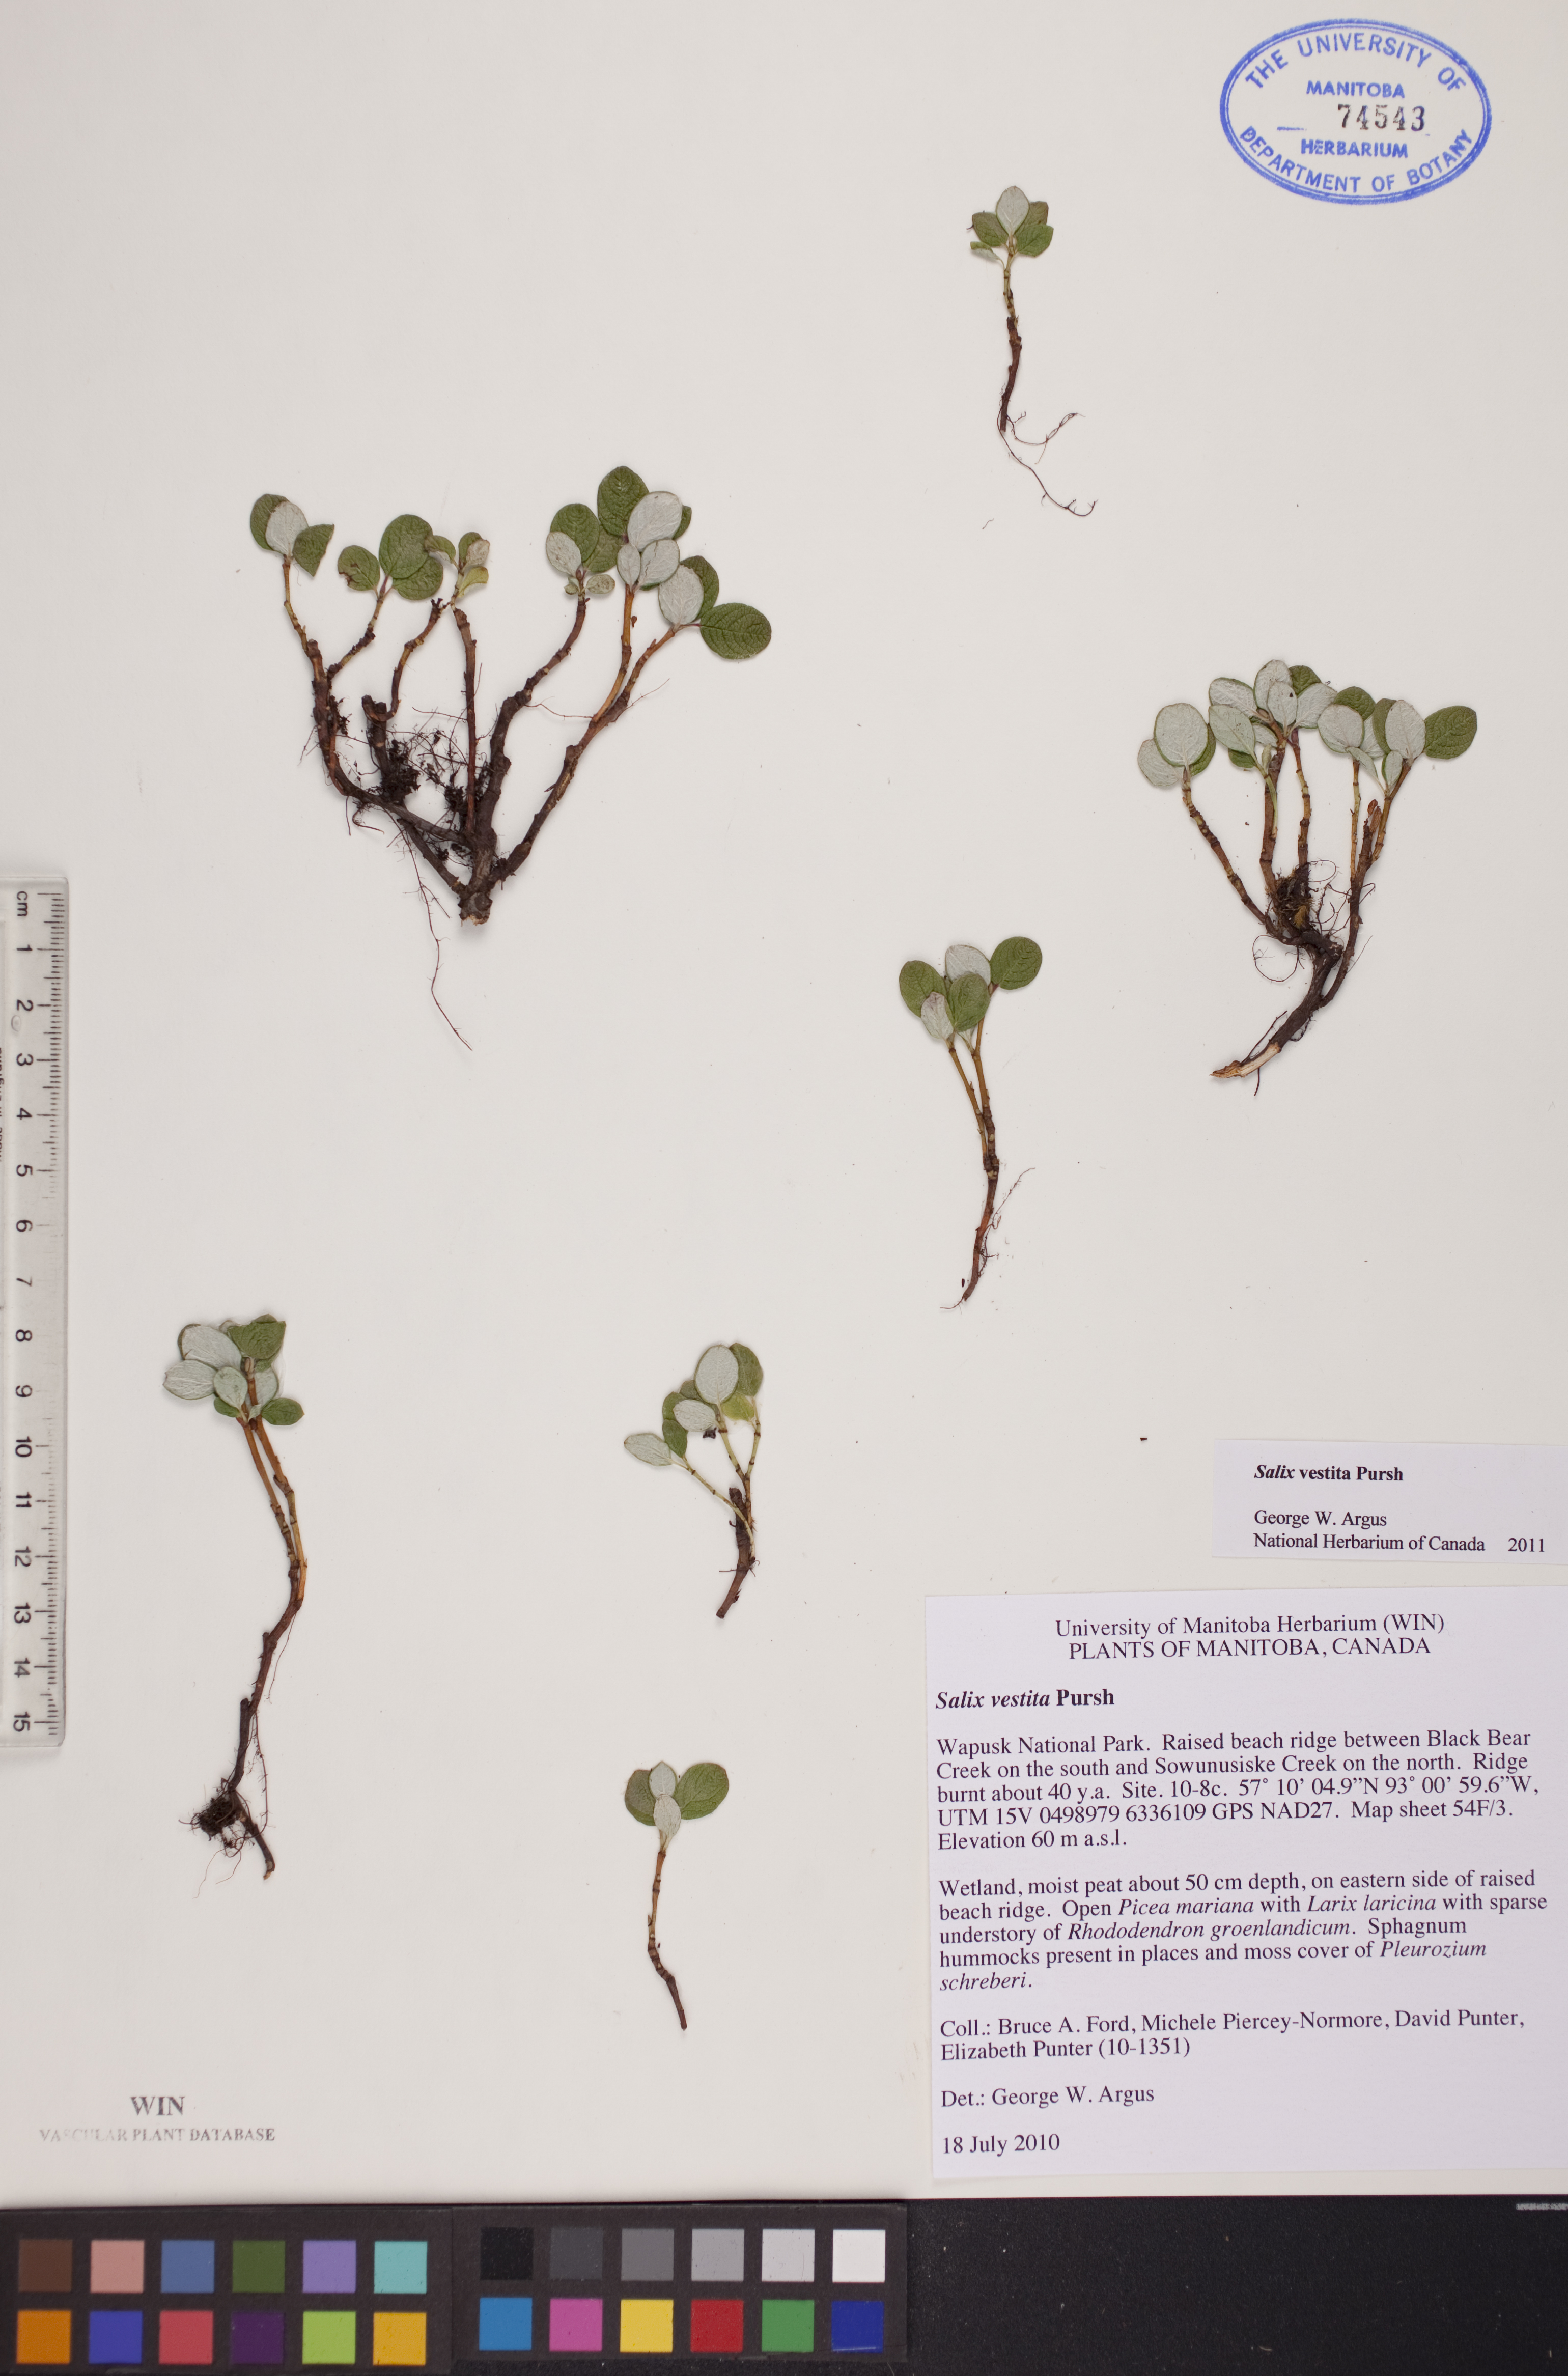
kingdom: Plantae
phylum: Tracheophyta
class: Magnoliopsida
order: Malpighiales
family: Salicaceae
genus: Salix
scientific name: Salix vestita
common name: Hairy willow
